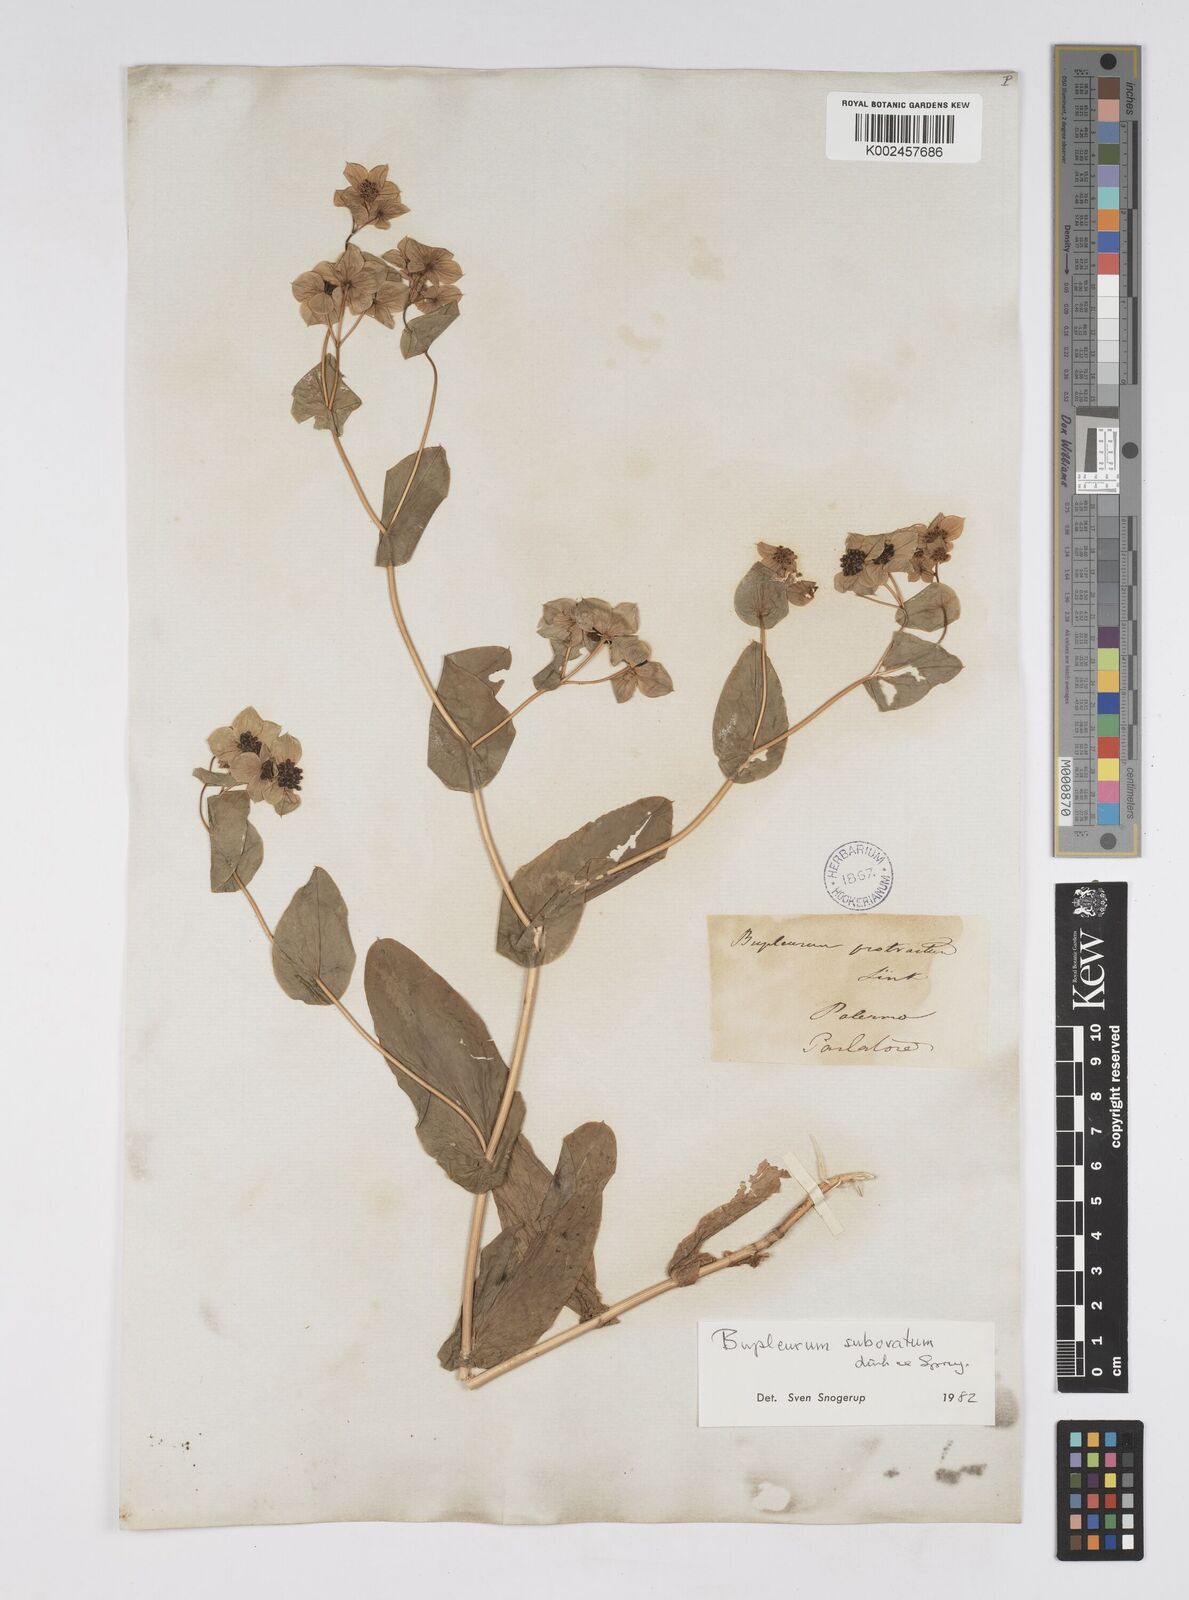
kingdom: Plantae
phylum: Tracheophyta
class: Magnoliopsida
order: Apiales
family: Apiaceae
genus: Bupleurum
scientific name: Bupleurum lancifolium
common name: False thorow-wax
